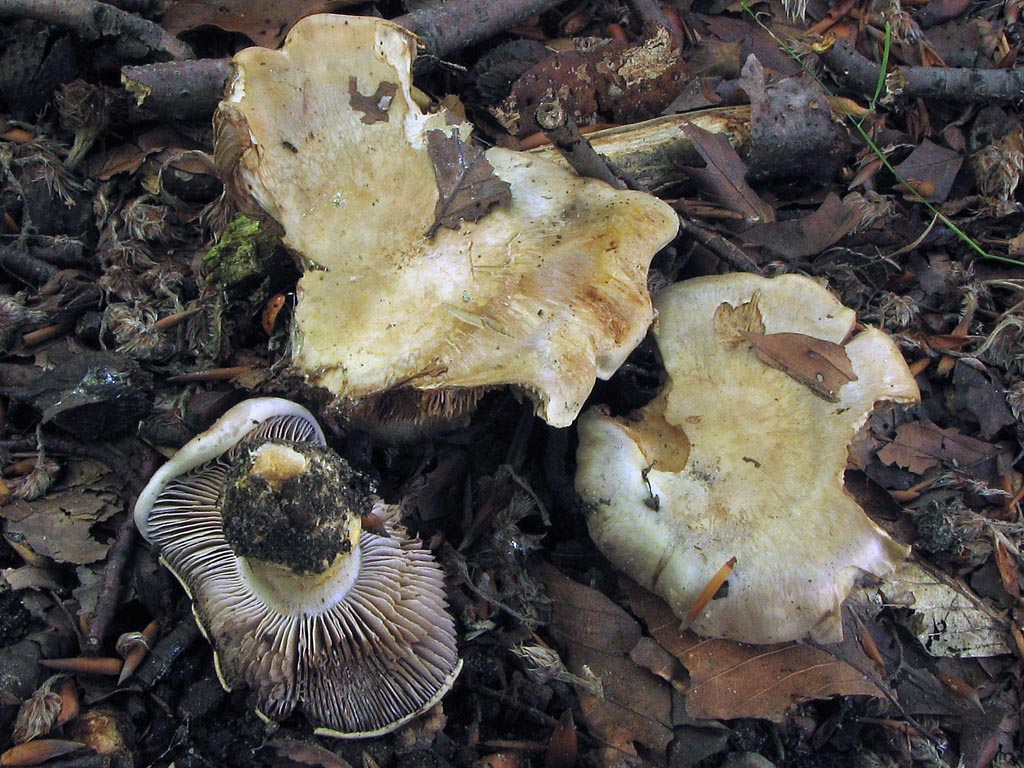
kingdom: Fungi
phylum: Basidiomycota
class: Agaricomycetes
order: Agaricales
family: Cortinariaceae
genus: Cortinarius
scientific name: Cortinarius foetens
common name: stribet slørhat
